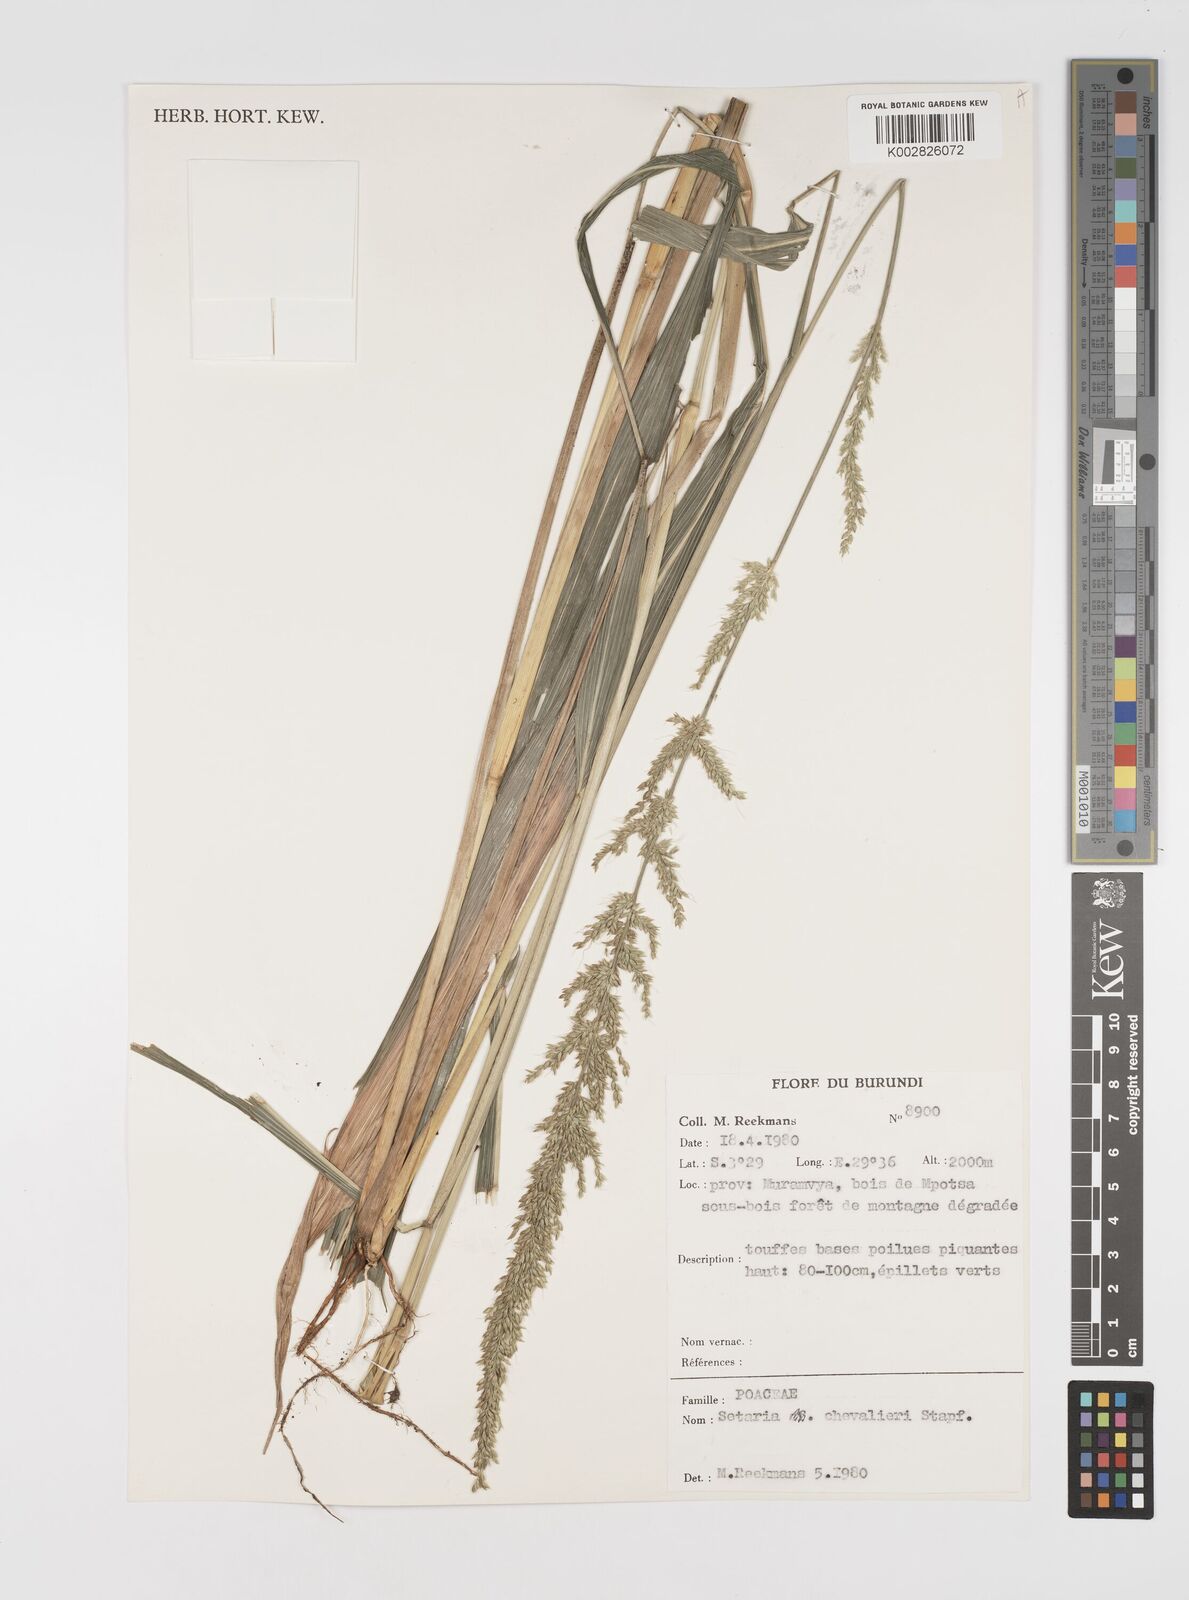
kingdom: Plantae
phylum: Tracheophyta
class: Liliopsida
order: Poales
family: Poaceae
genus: Setaria
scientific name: Setaria megaphylla
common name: Bigleaf bristlegrass
